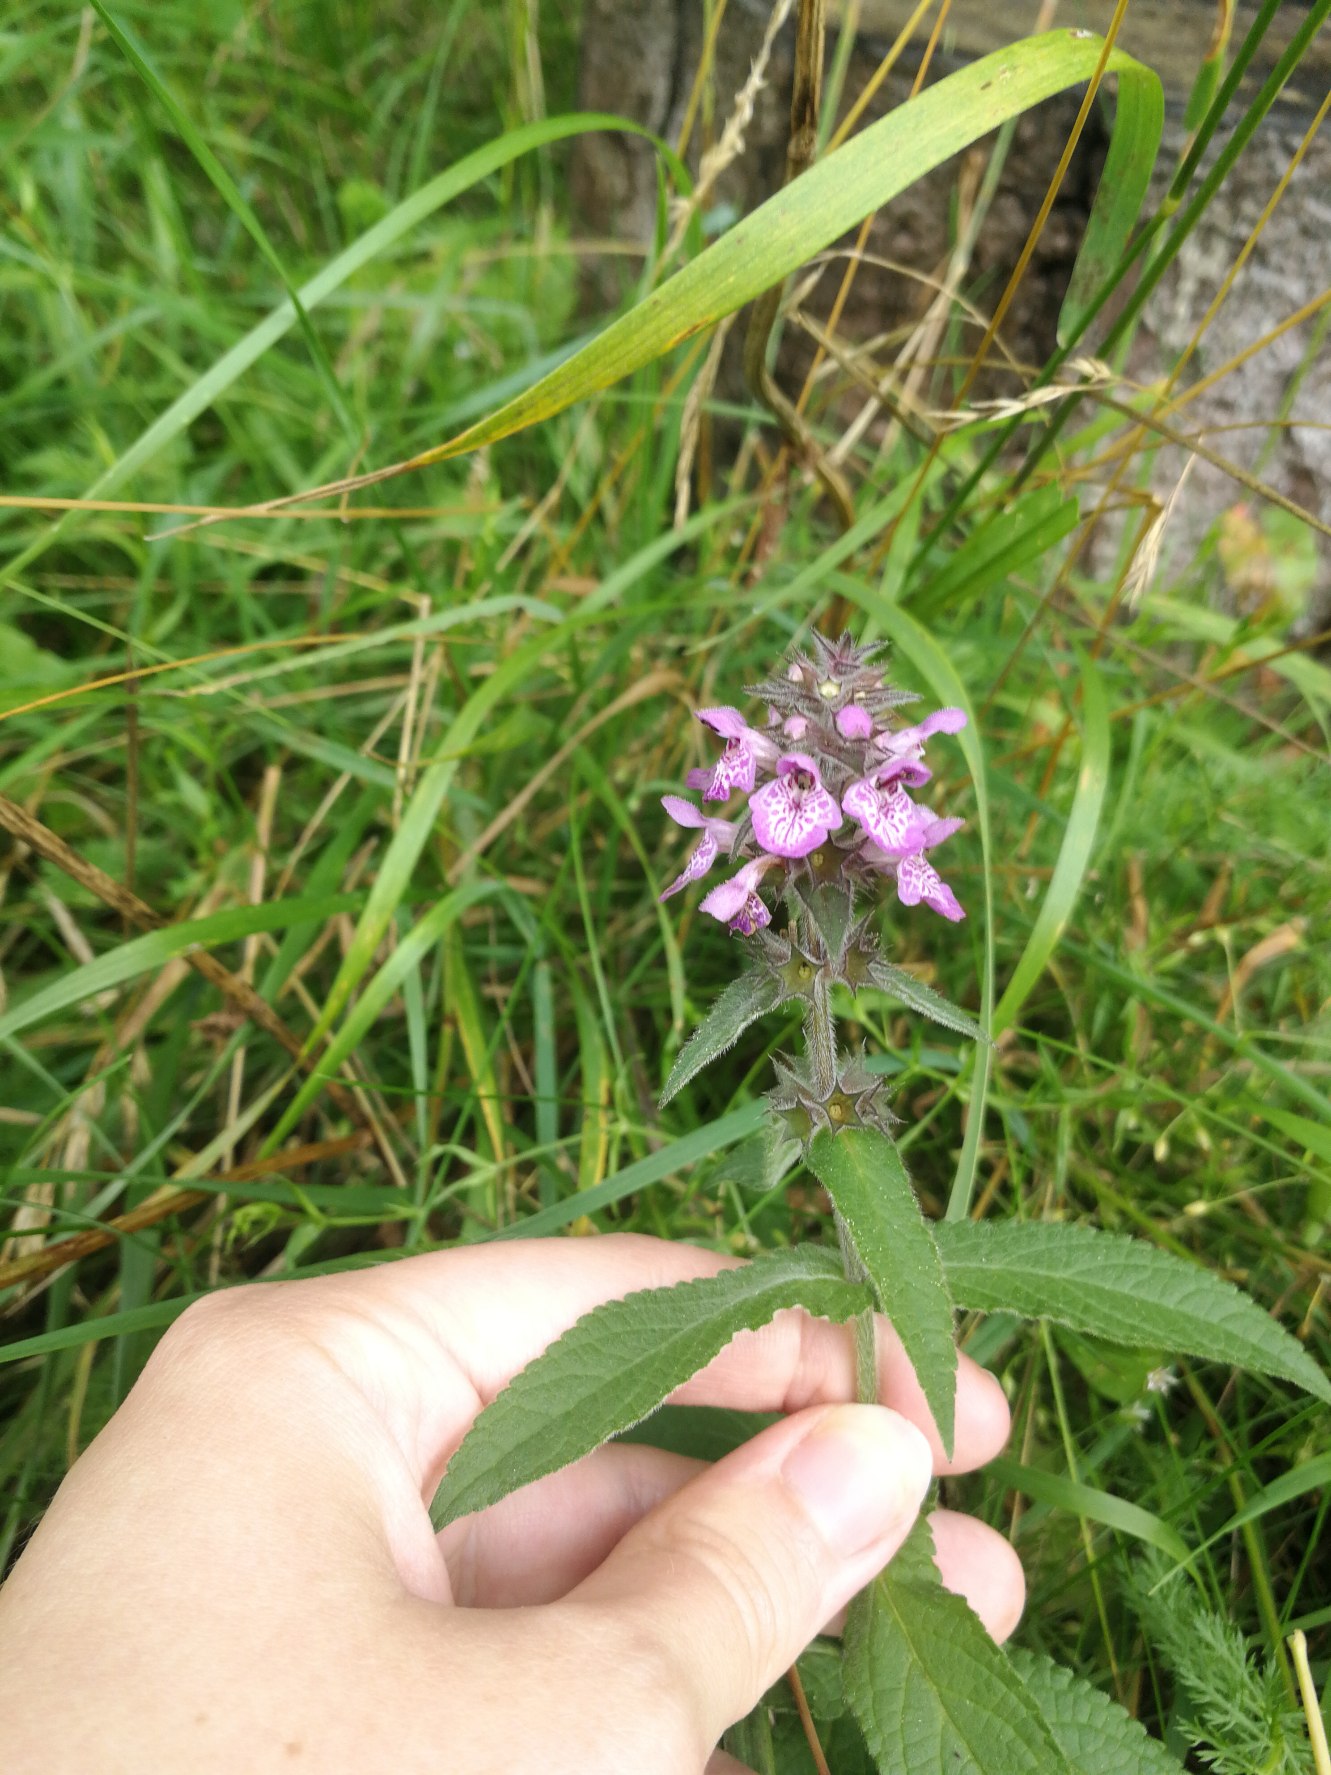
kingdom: Plantae
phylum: Tracheophyta
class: Magnoliopsida
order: Lamiales
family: Lamiaceae
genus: Stachys
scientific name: Stachys palustris
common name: Kær-galtetand
